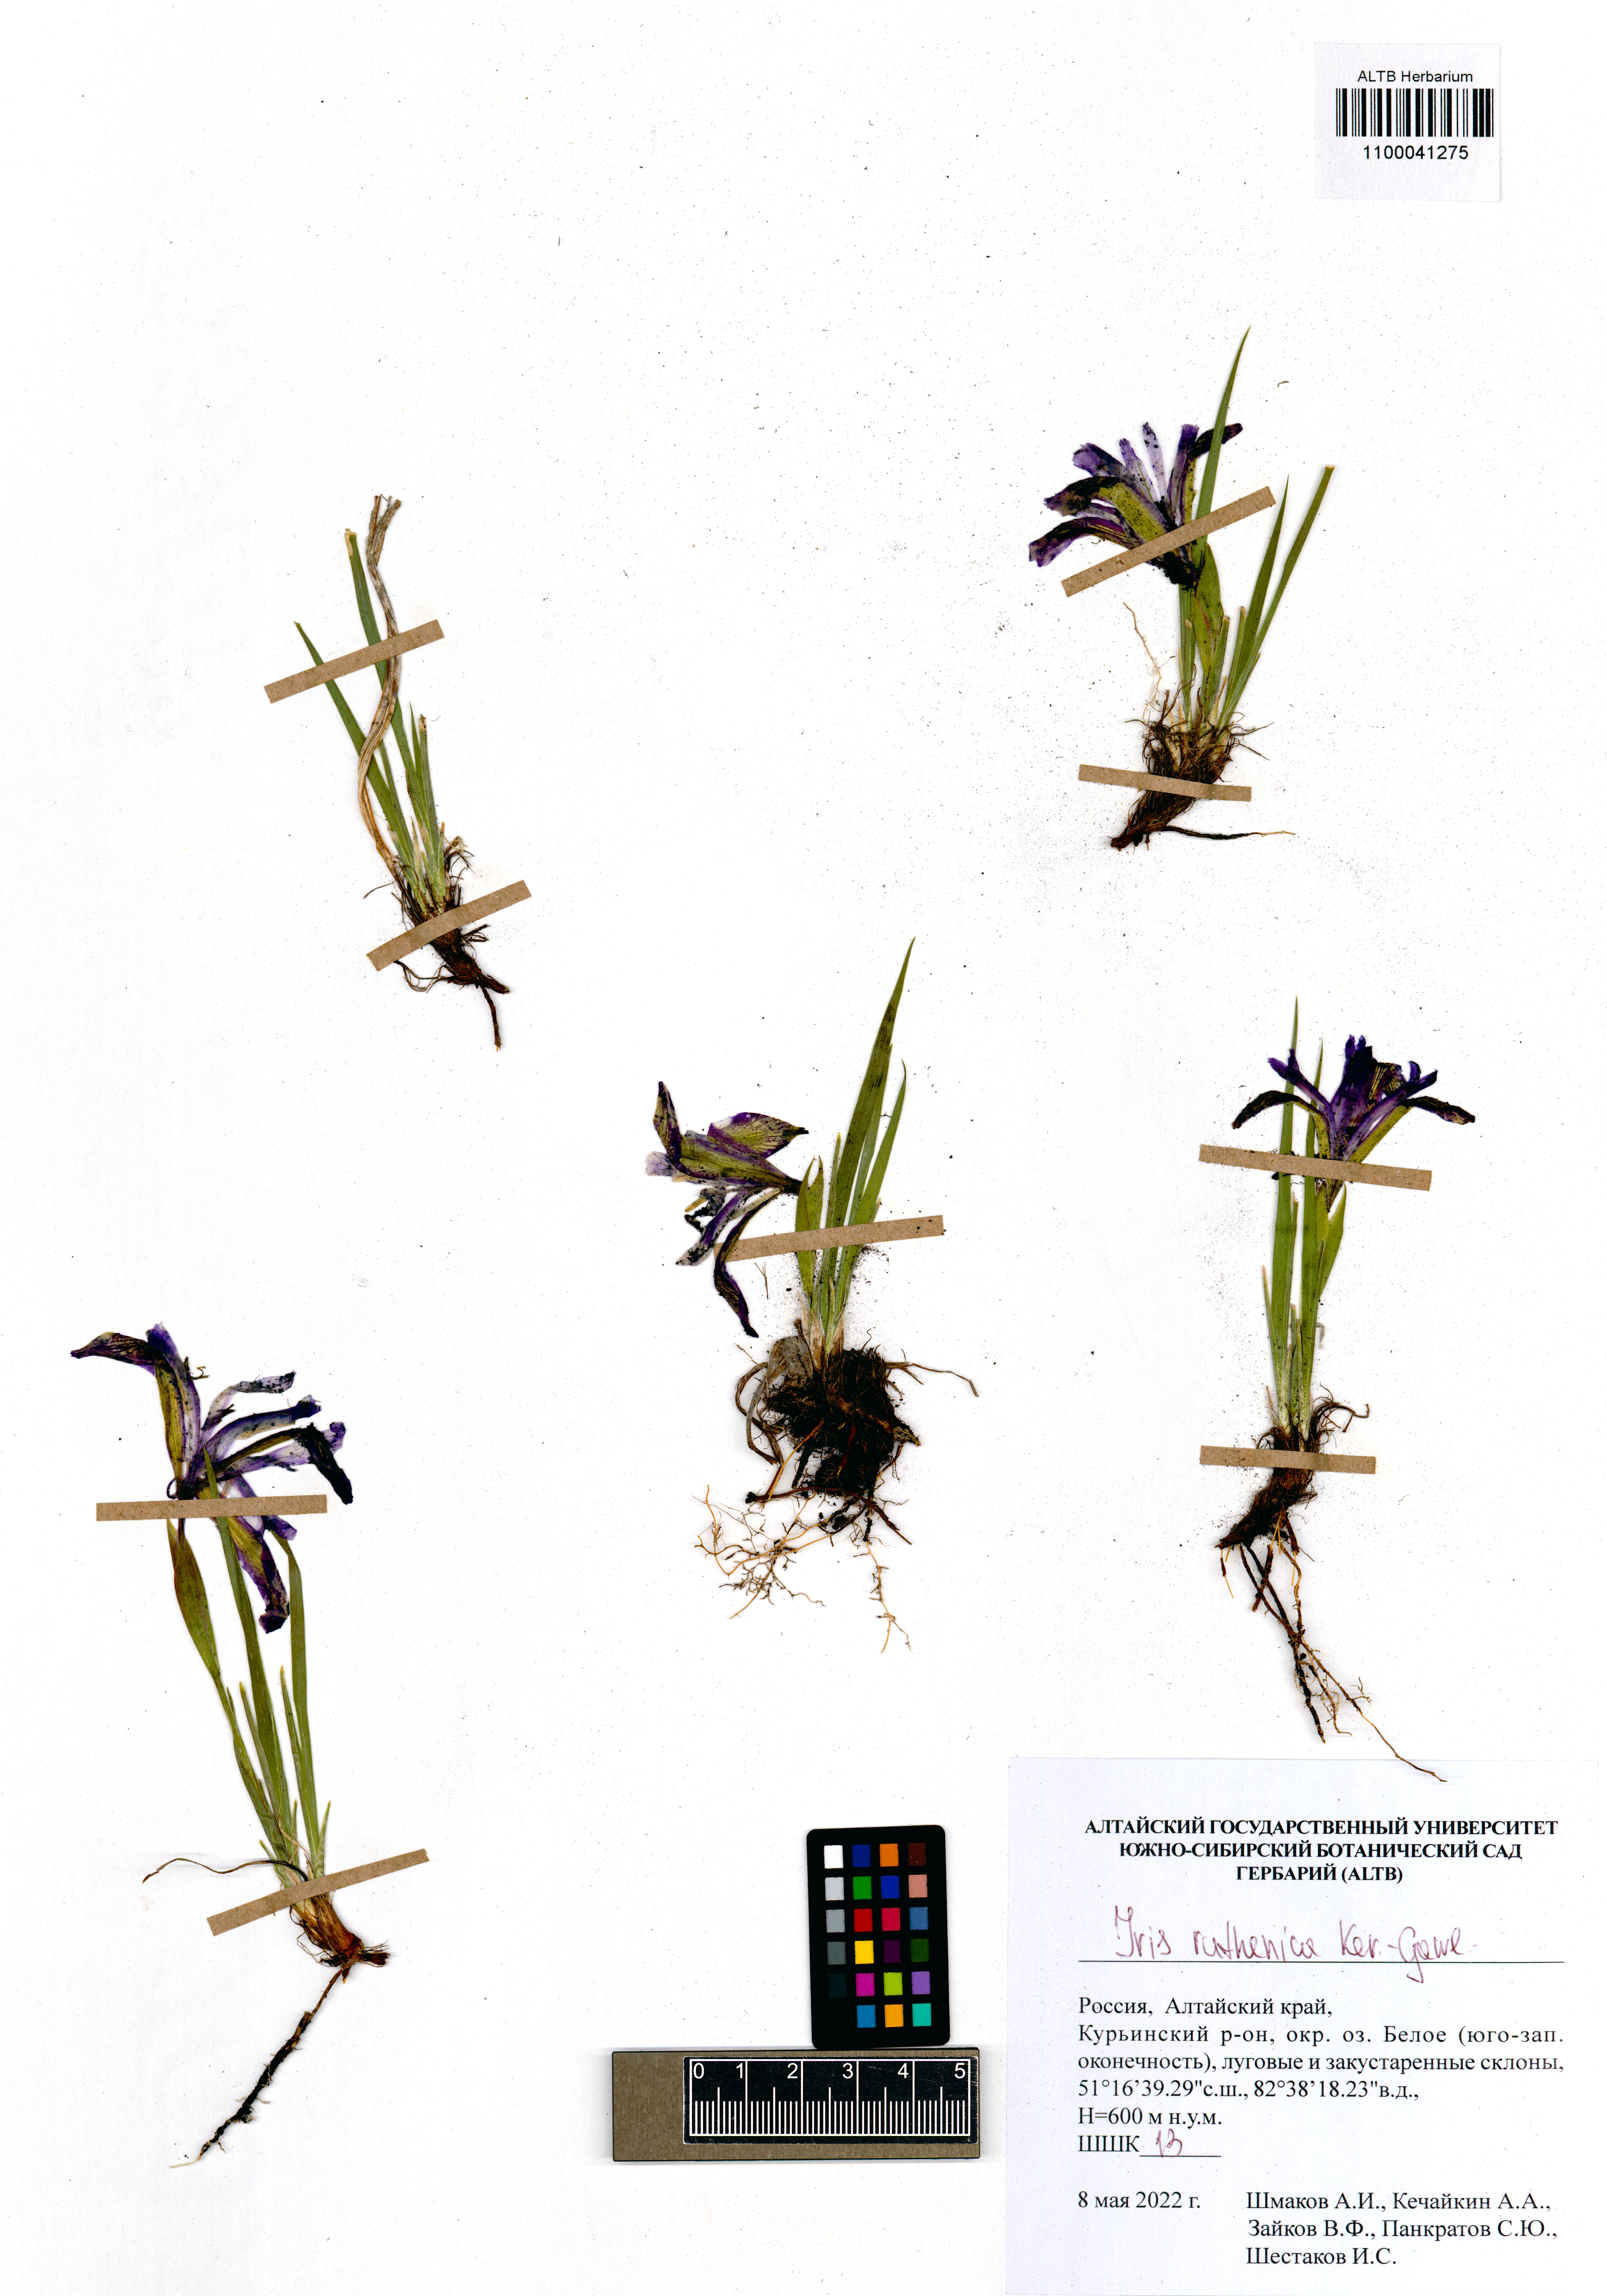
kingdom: Plantae
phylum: Tracheophyta
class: Liliopsida
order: Asparagales
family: Iridaceae
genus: Iris
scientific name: Iris ruthenica
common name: Purple-bract iris
